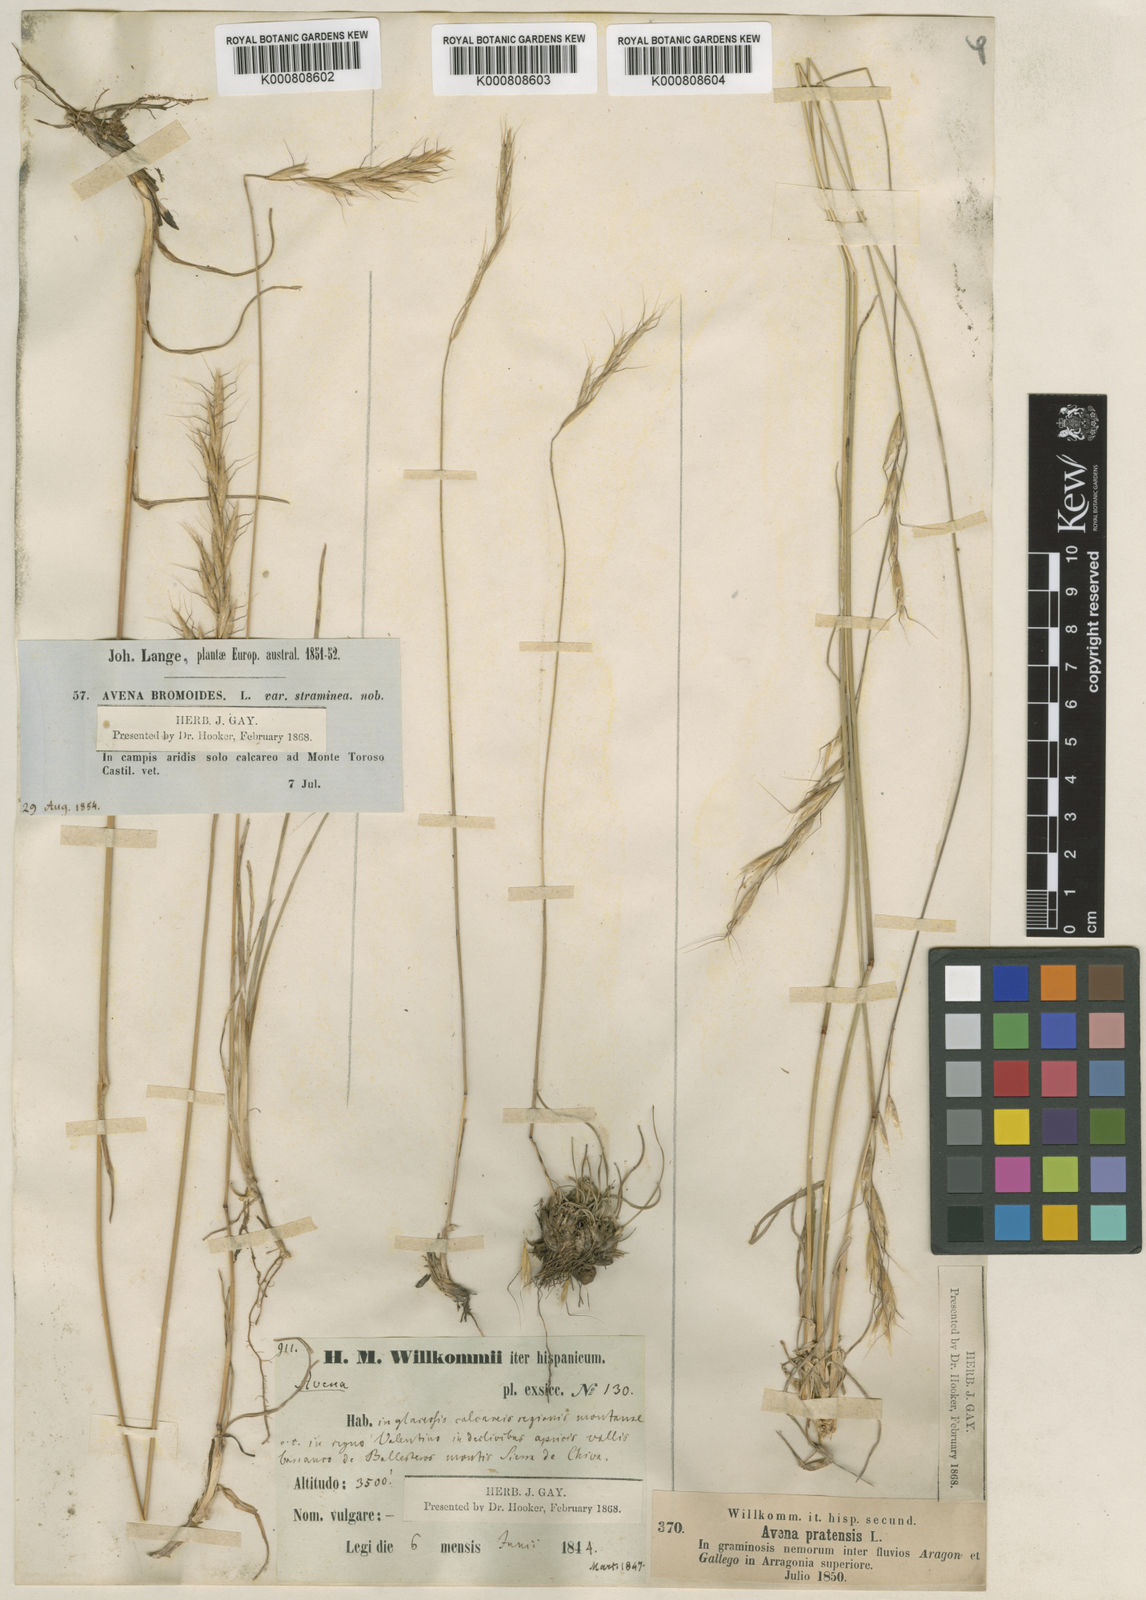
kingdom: Plantae
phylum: Tracheophyta
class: Liliopsida
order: Poales
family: Poaceae
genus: Helictochloa
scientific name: Helictochloa bromoides
